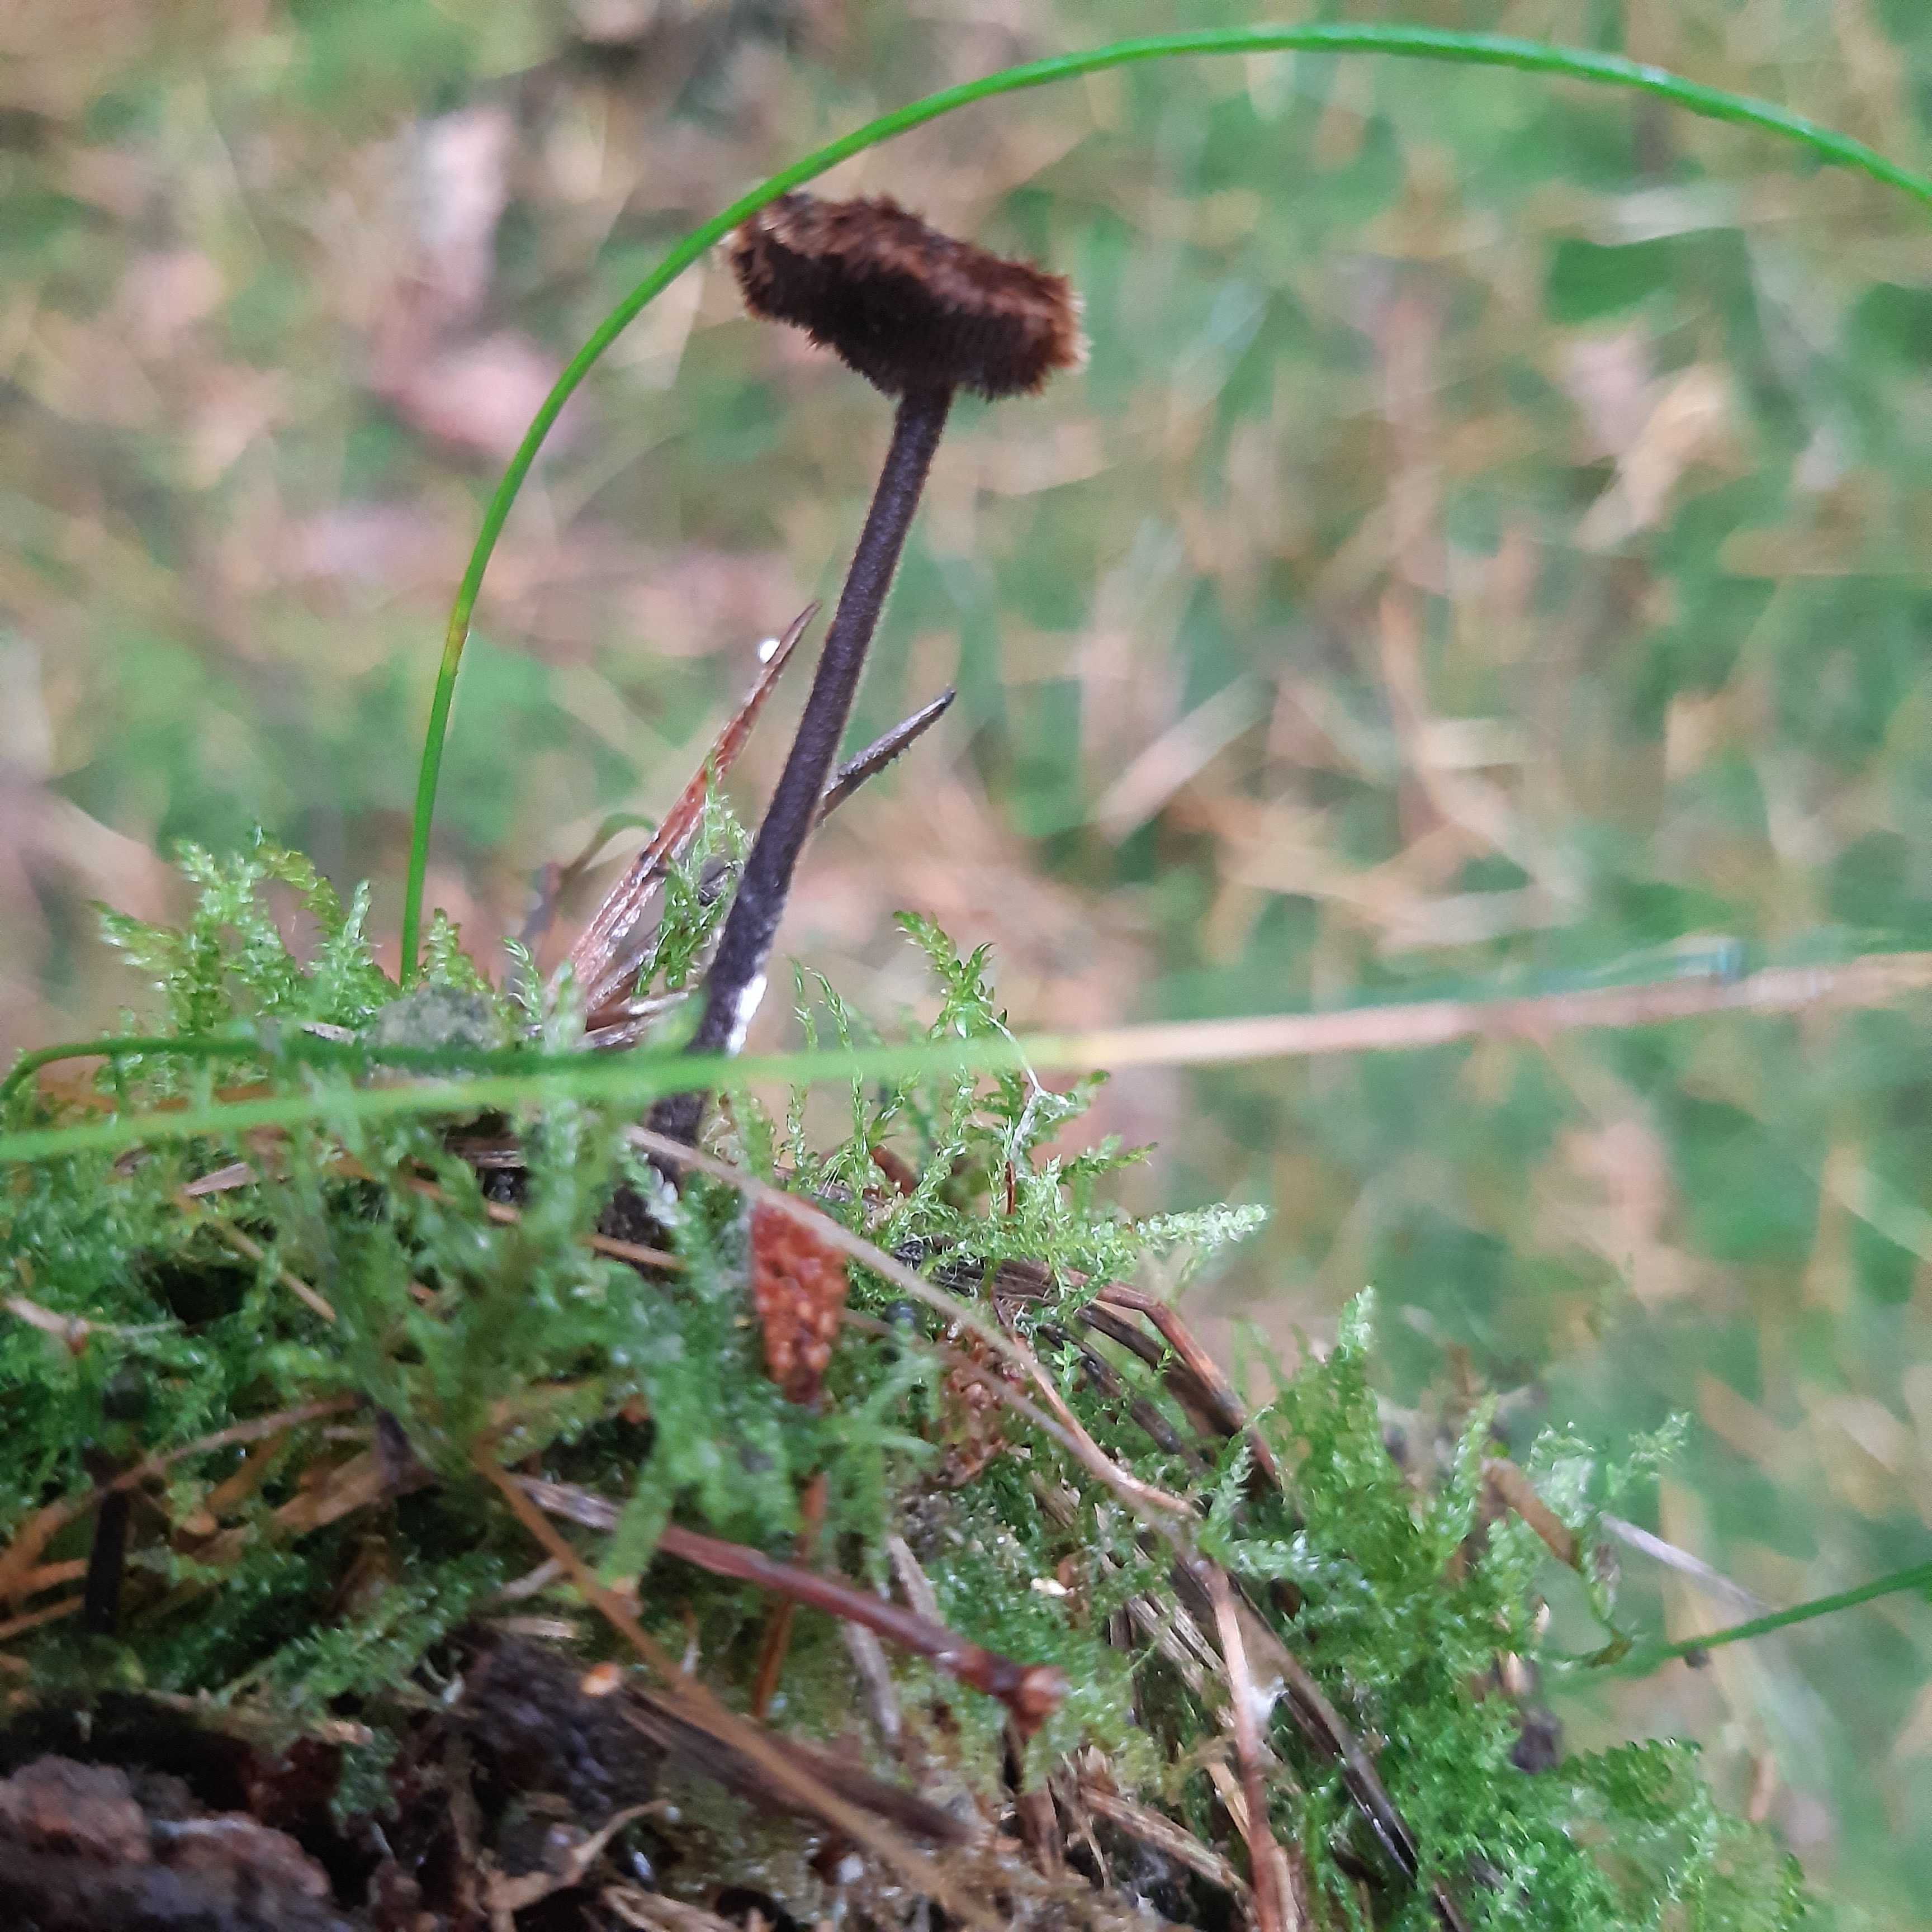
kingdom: Fungi
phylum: Basidiomycota
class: Agaricomycetes
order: Russulales
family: Auriscalpiaceae
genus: Auriscalpium
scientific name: Auriscalpium vulgare
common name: koglepigsvamp
